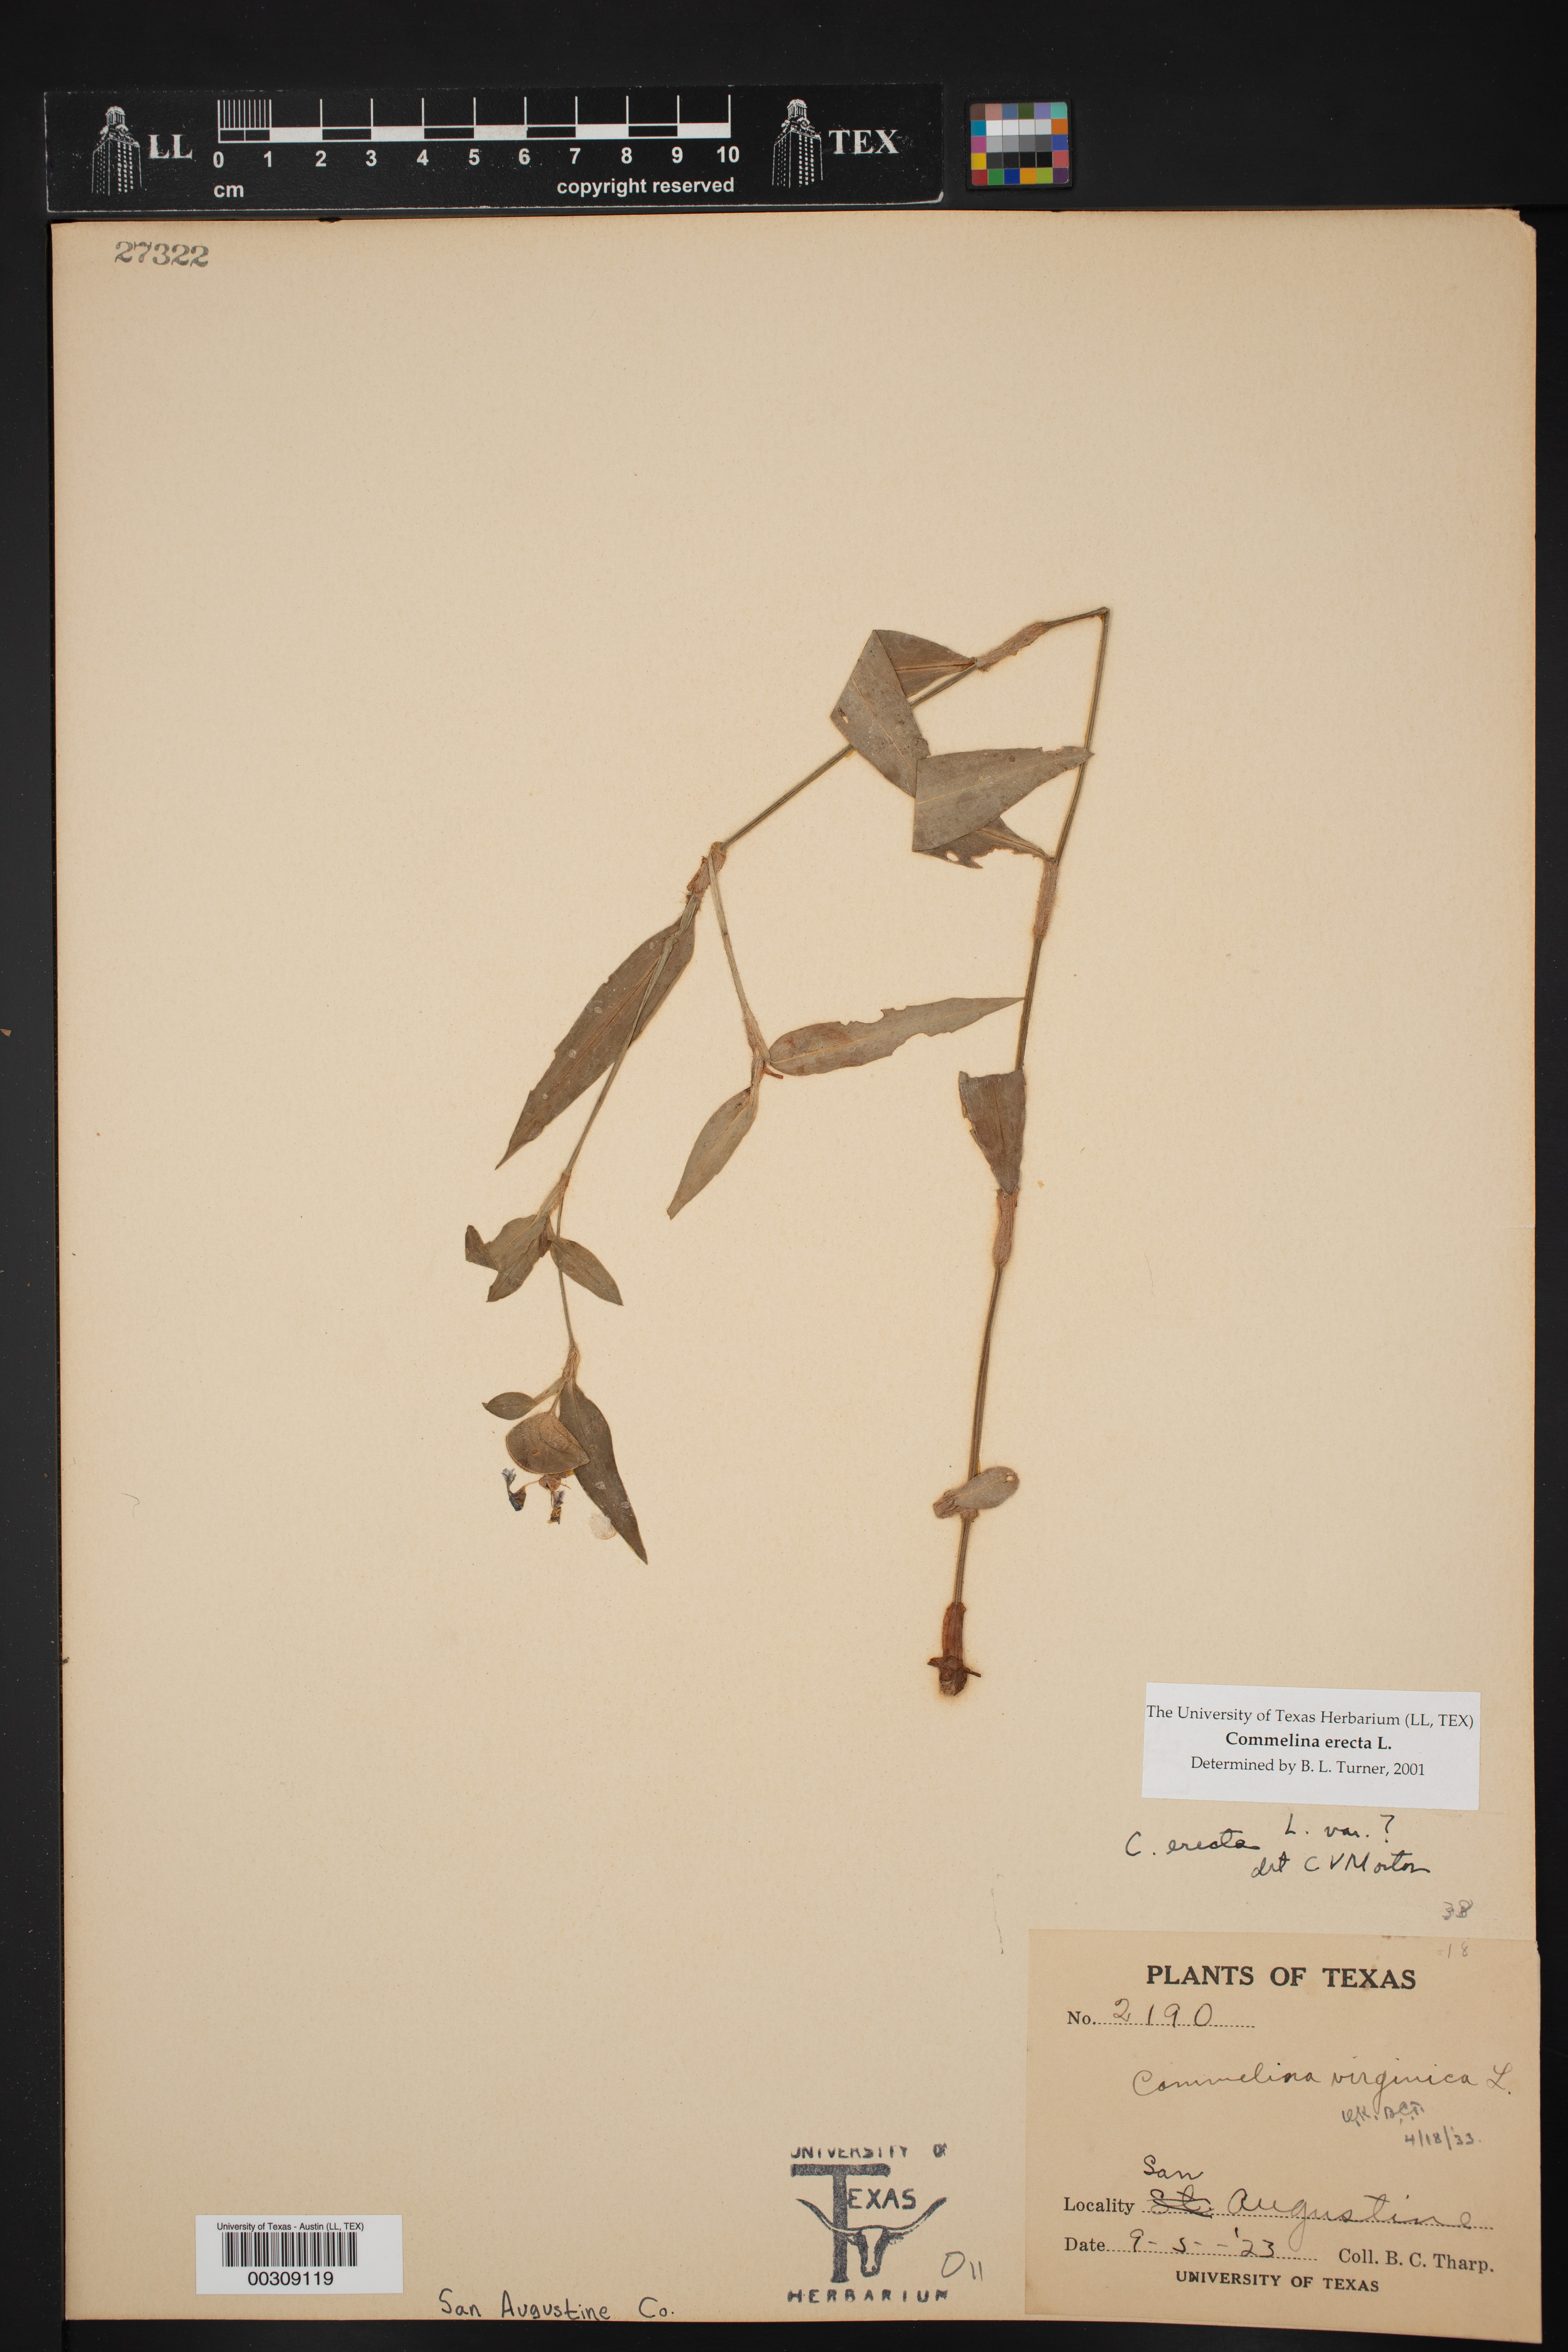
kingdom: Plantae
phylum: Tracheophyta
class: Liliopsida
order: Commelinales
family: Commelinaceae
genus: Commelina
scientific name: Commelina erecta
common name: Blousel blommetjie
